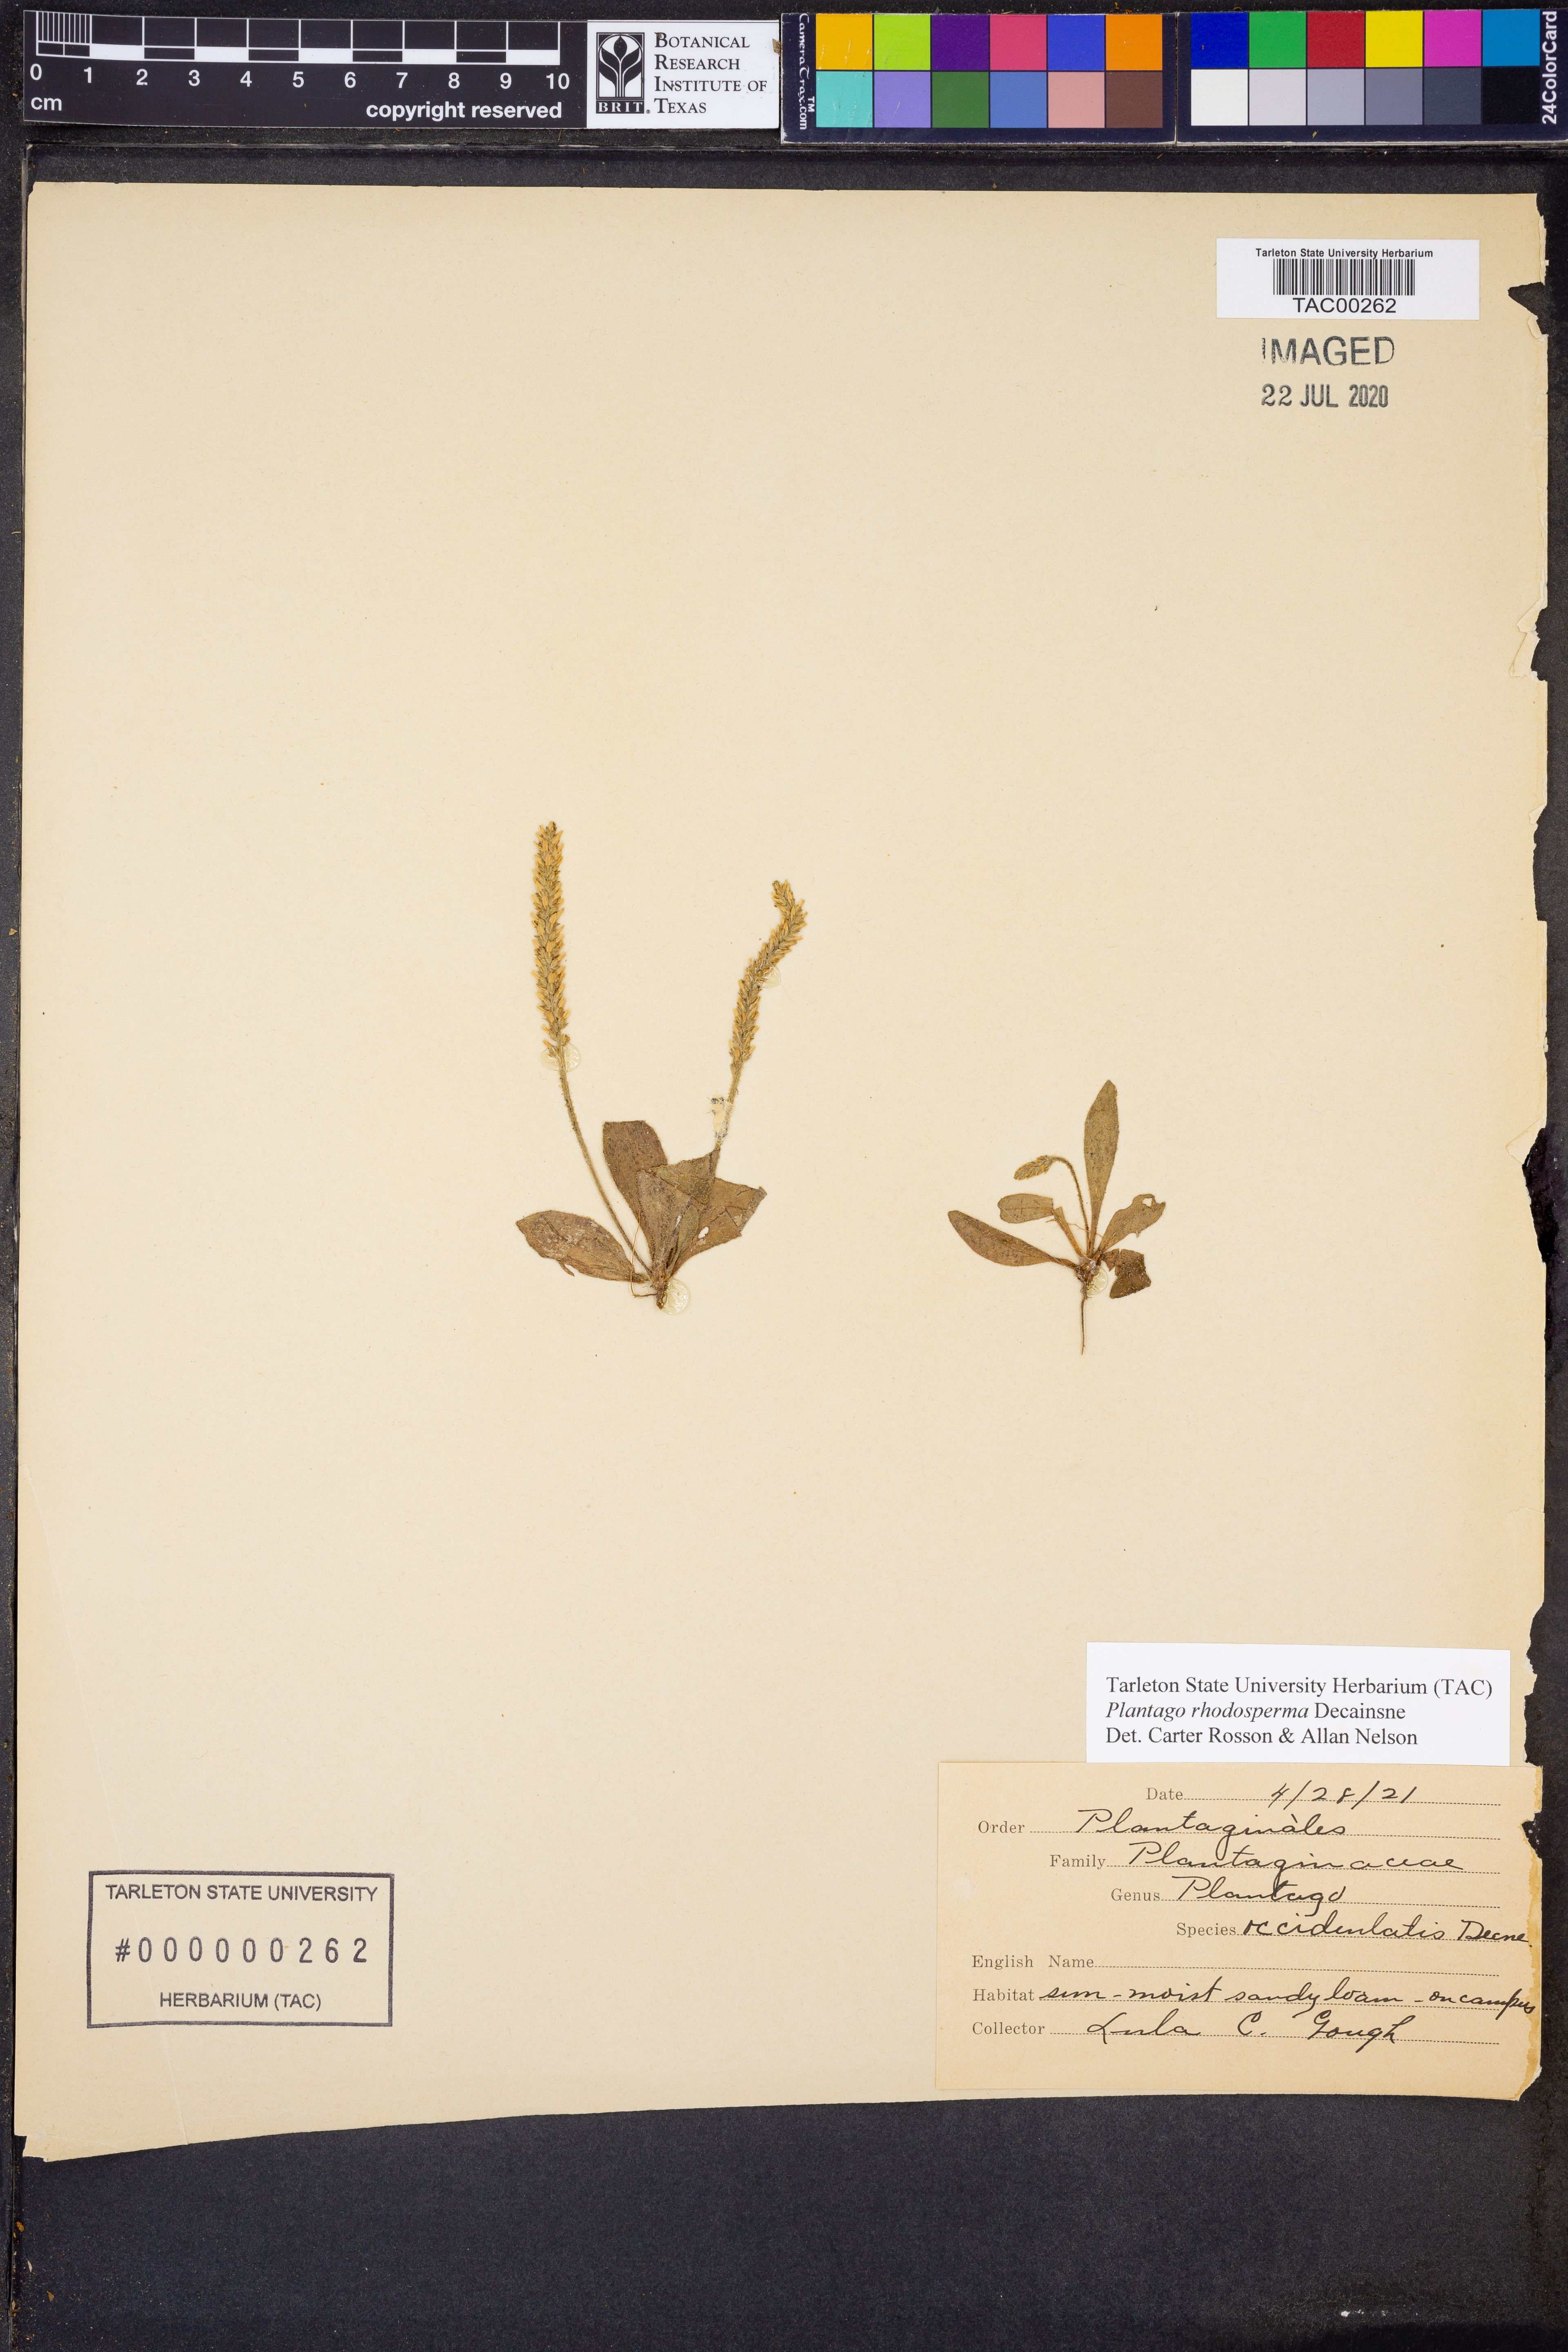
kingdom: Plantae
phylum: Tracheophyta
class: Magnoliopsida
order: Lamiales
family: Plantaginaceae
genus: Plantago
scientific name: Plantago rhodosperma
